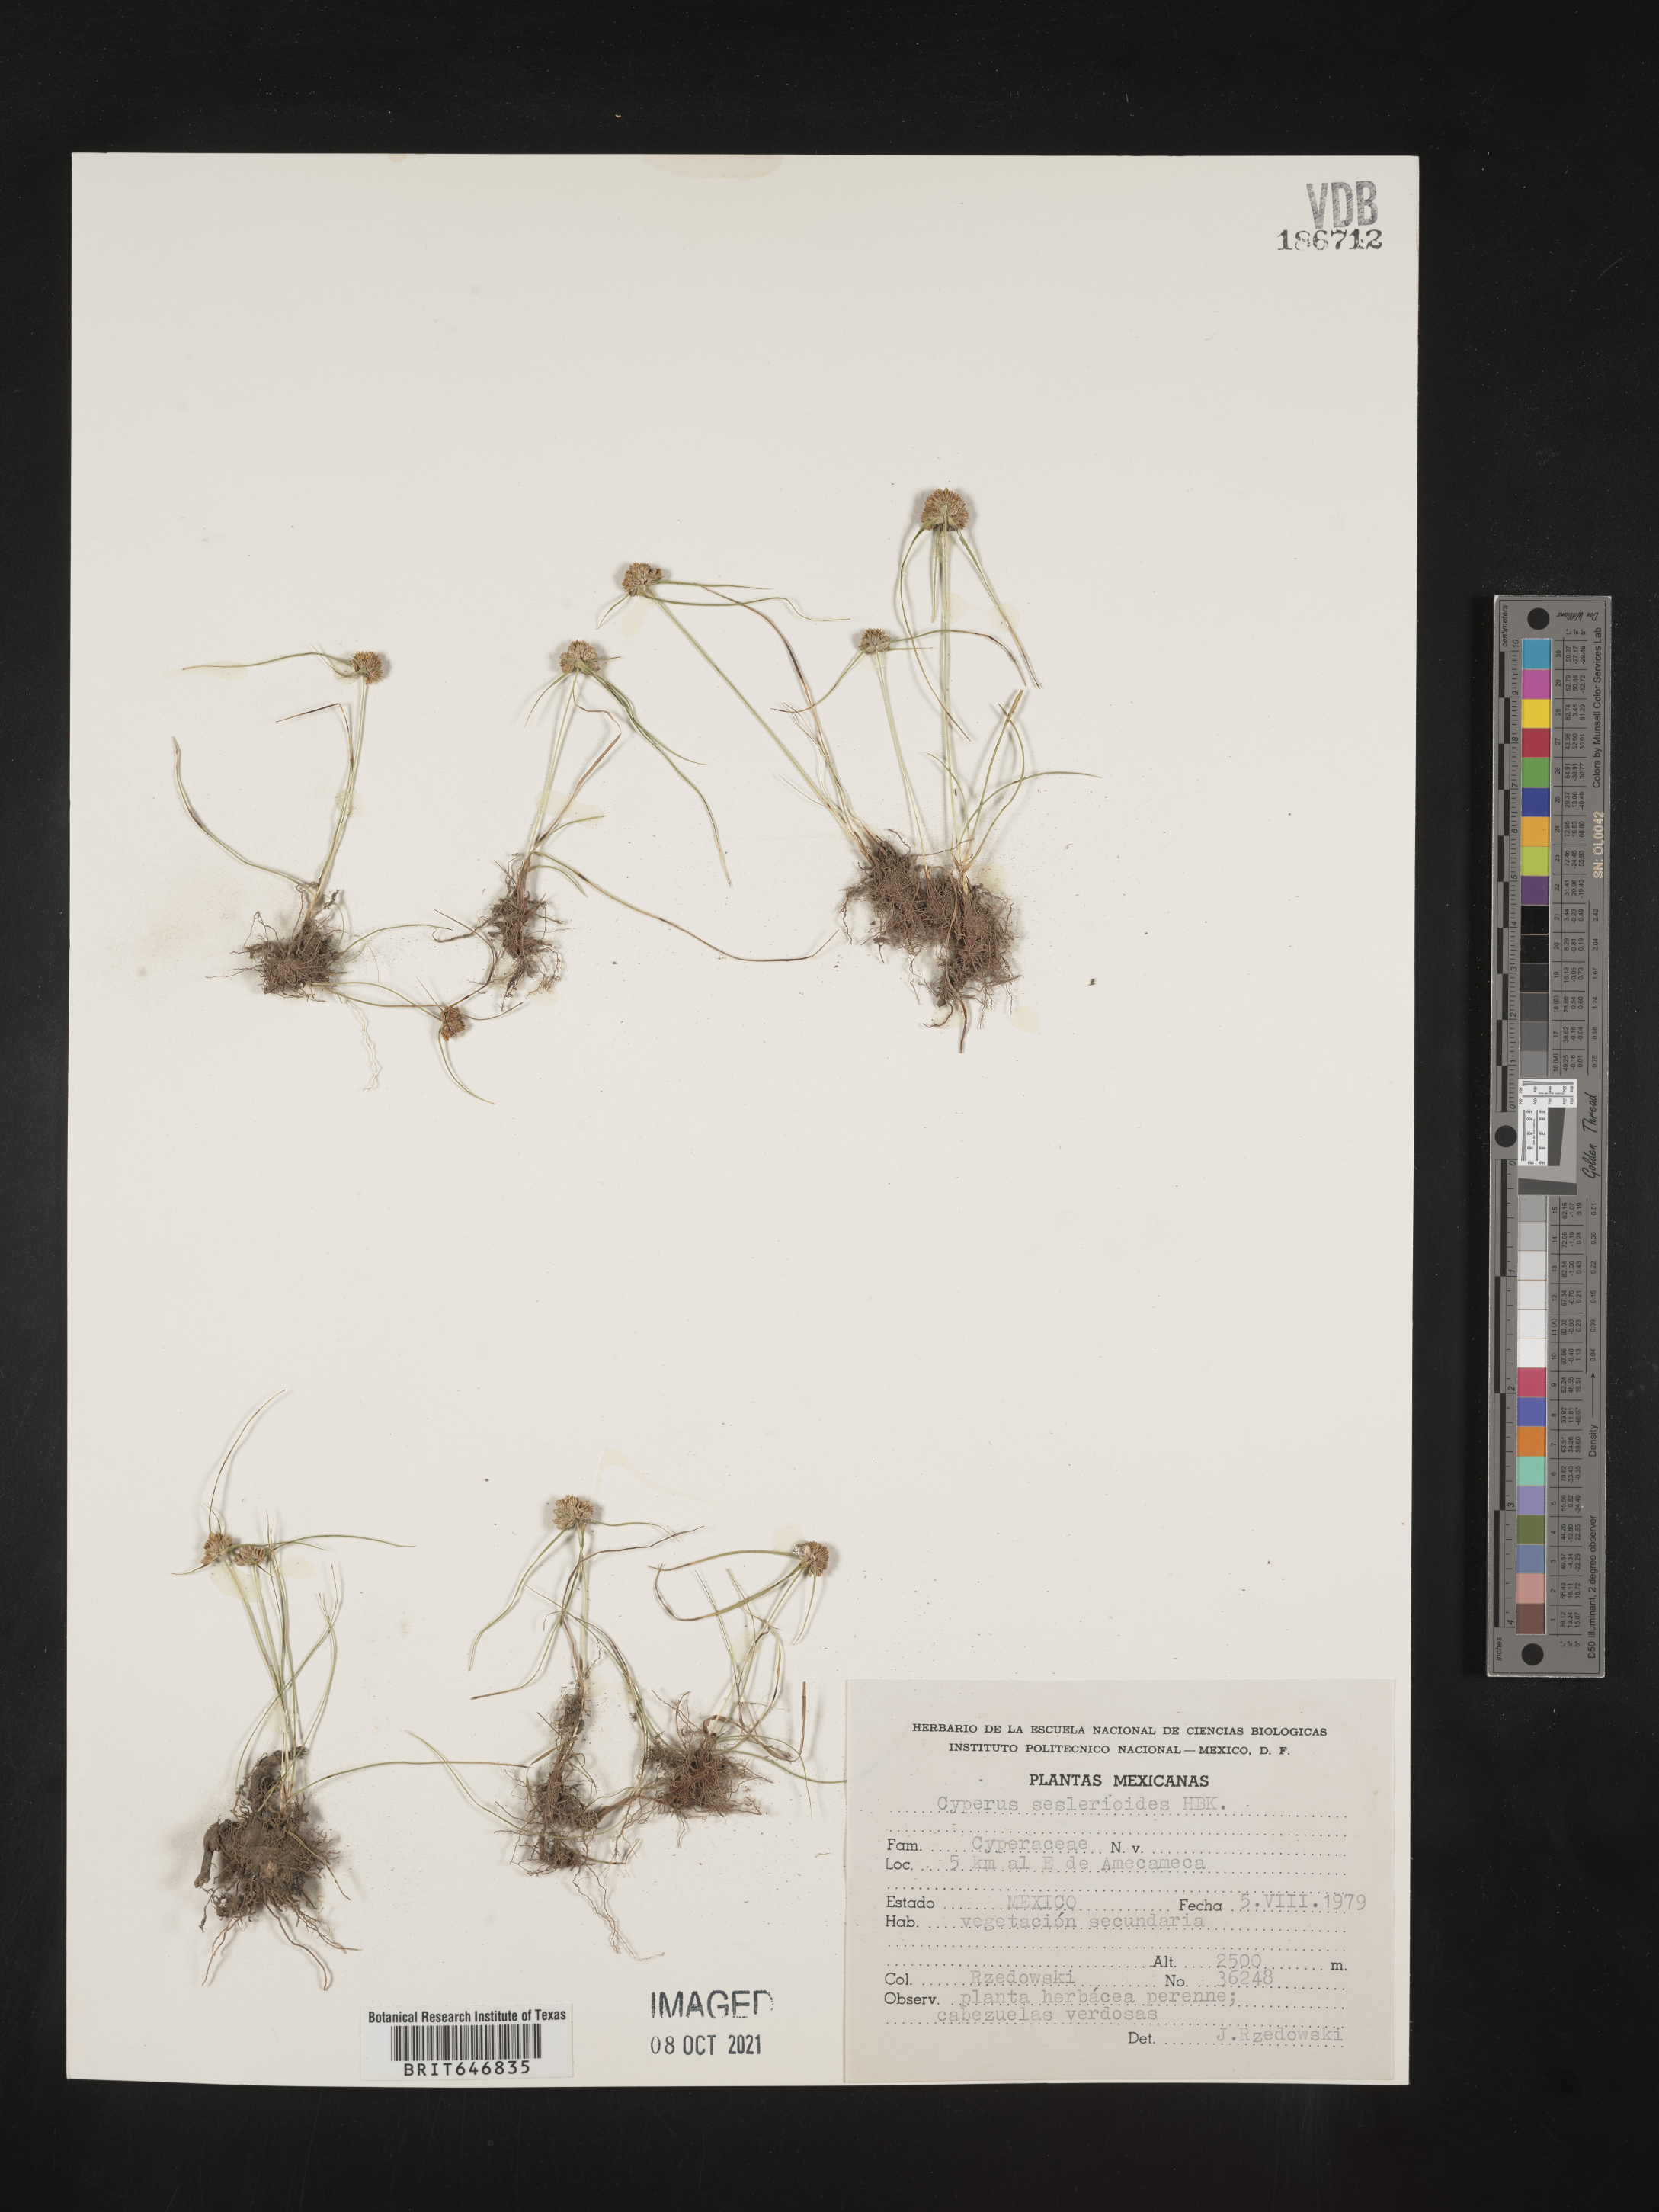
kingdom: Plantae
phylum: Tracheophyta
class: Liliopsida
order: Poales
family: Cyperaceae
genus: Cyperus
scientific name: Cyperus
